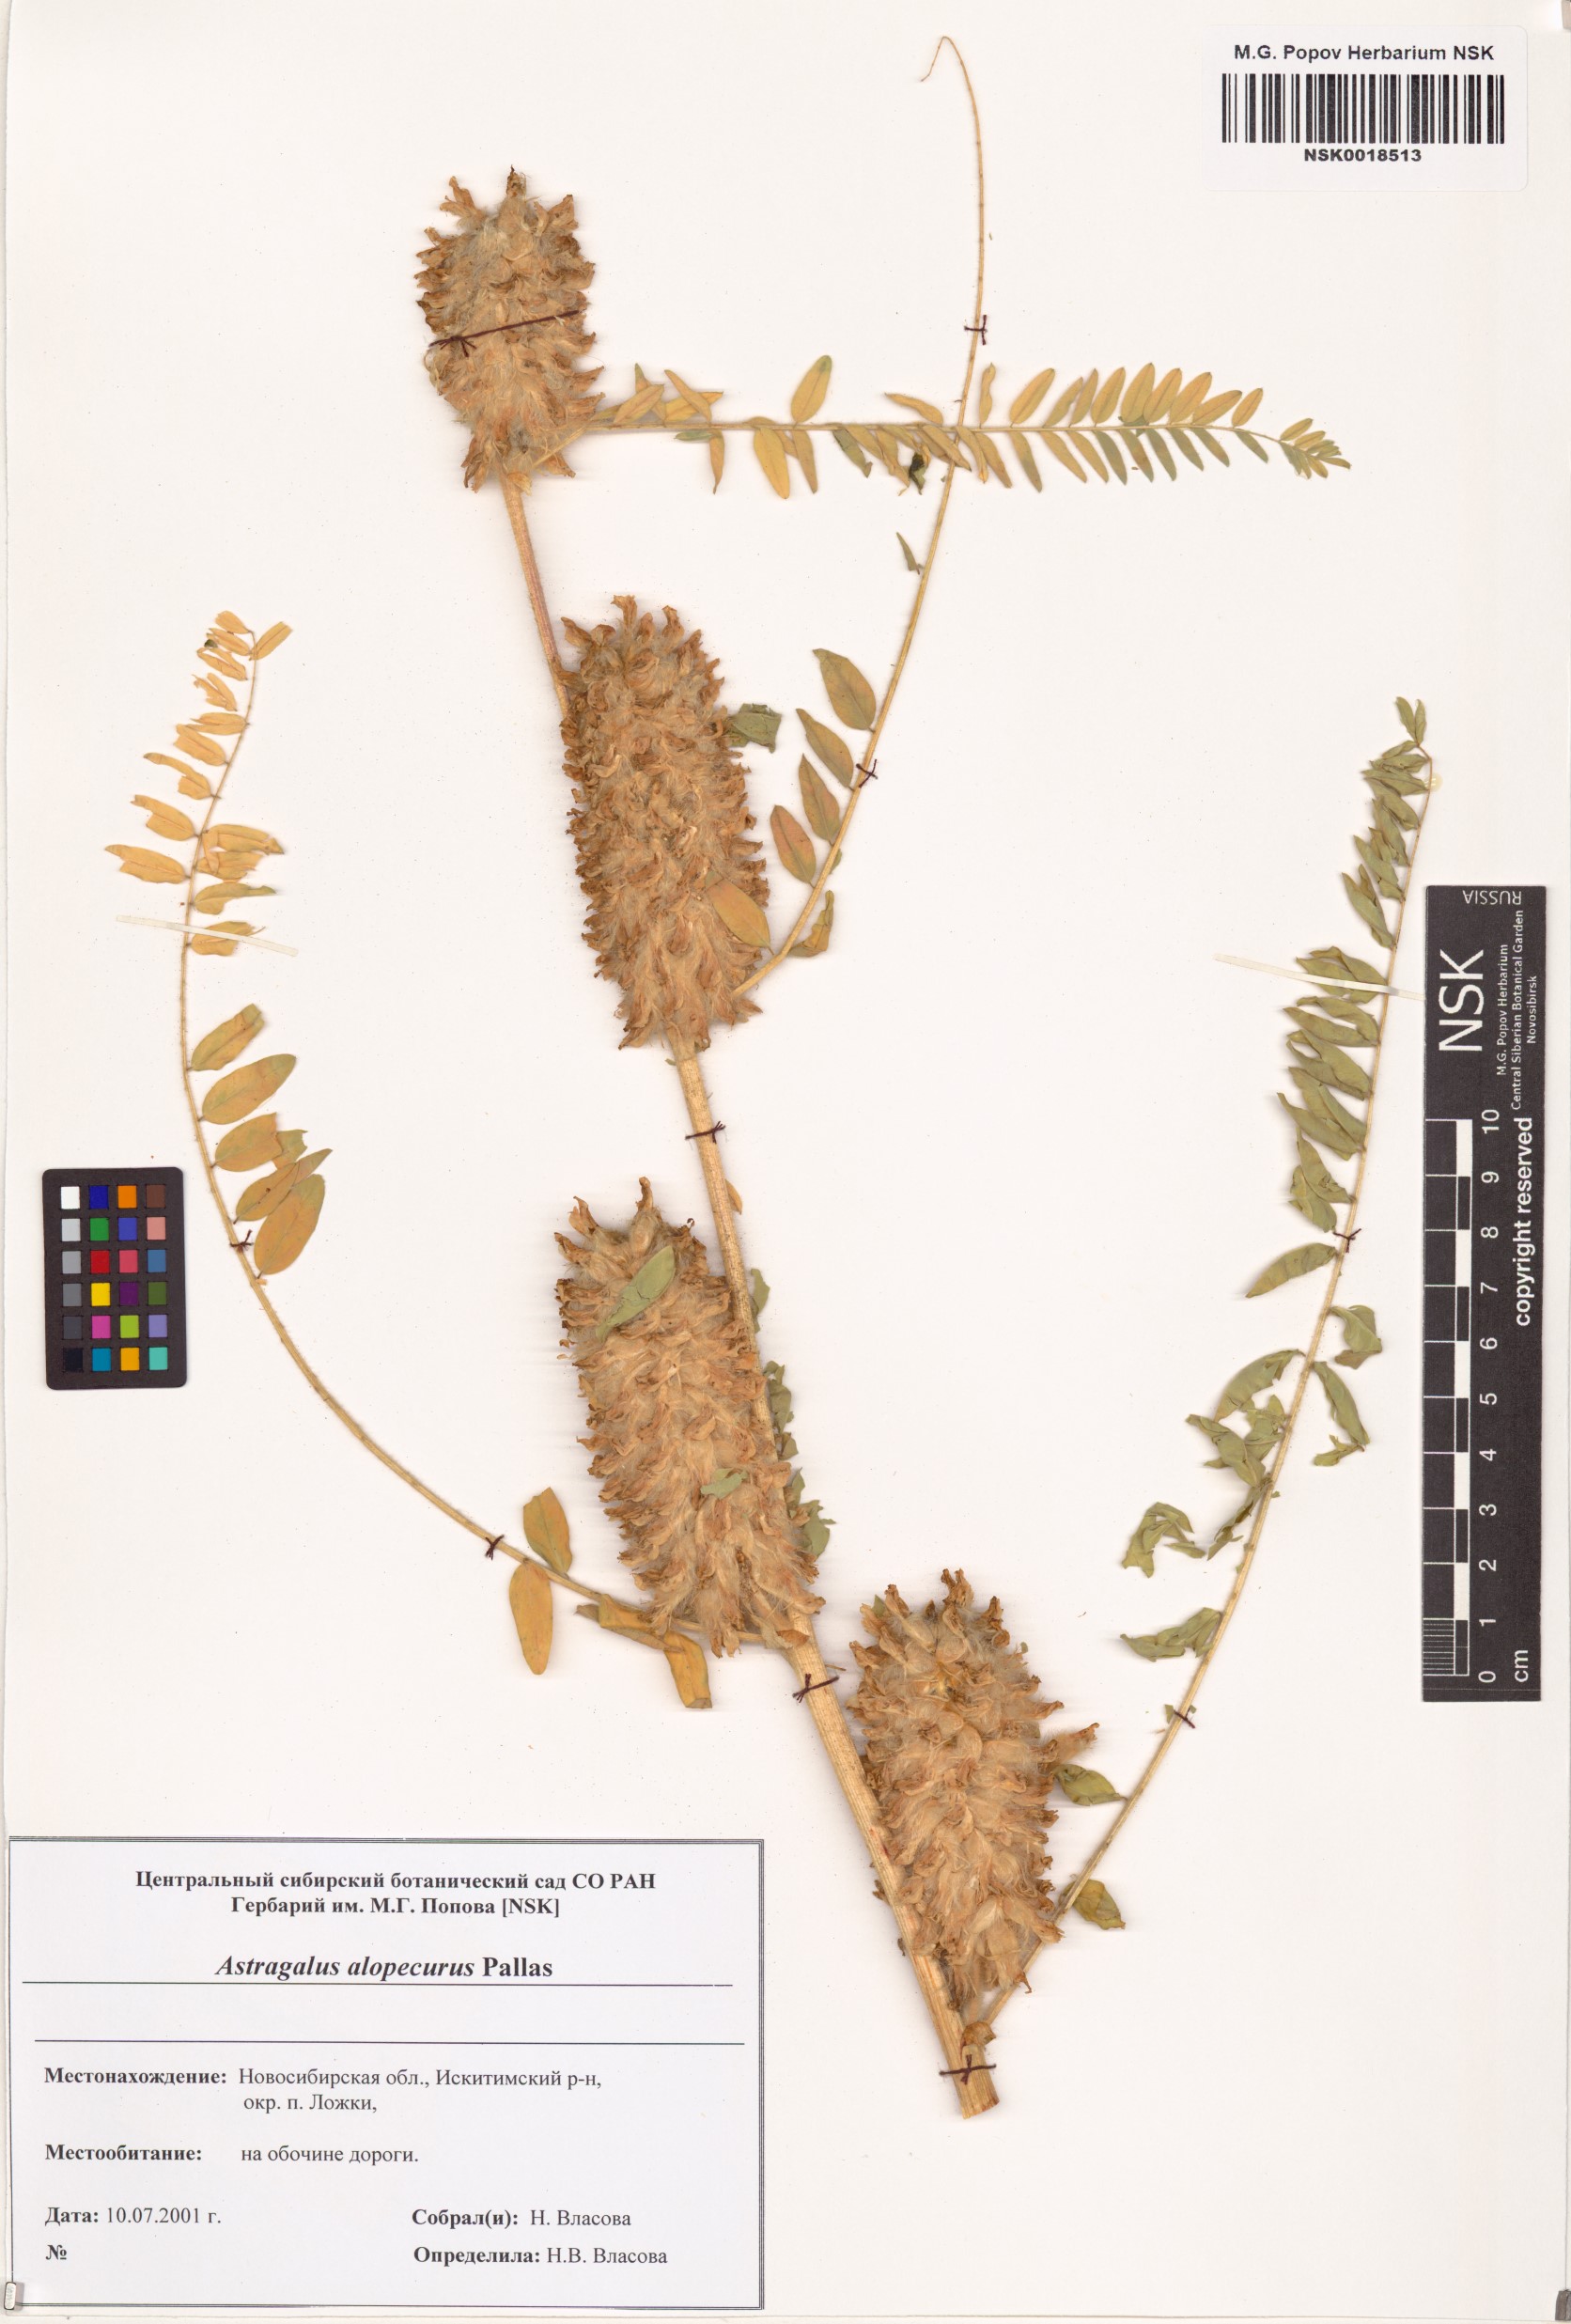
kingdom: Plantae
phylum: Tracheophyta
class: Magnoliopsida
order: Fabales
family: Fabaceae
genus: Astragalus
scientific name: Astragalus alopecurus
